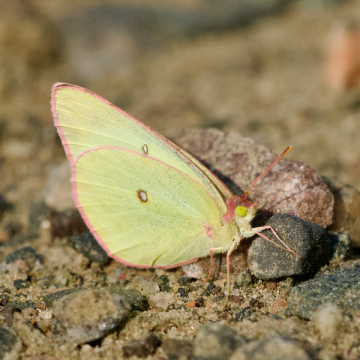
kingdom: Animalia
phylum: Arthropoda
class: Insecta
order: Lepidoptera
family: Pieridae
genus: Colias
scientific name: Colias interior
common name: Pink-edged Sulphur
